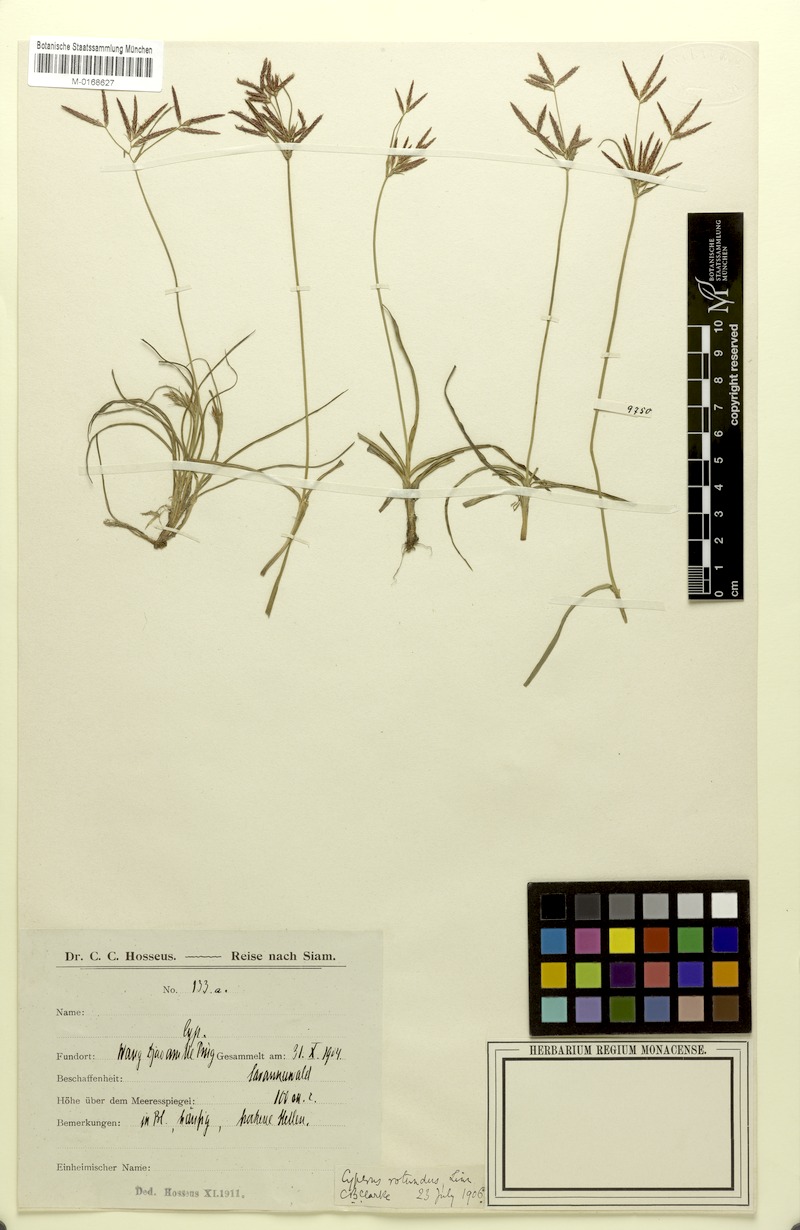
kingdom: Plantae
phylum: Tracheophyta
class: Liliopsida
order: Poales
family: Cyperaceae
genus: Cyperus
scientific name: Cyperus rotundus
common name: Nutgrass
